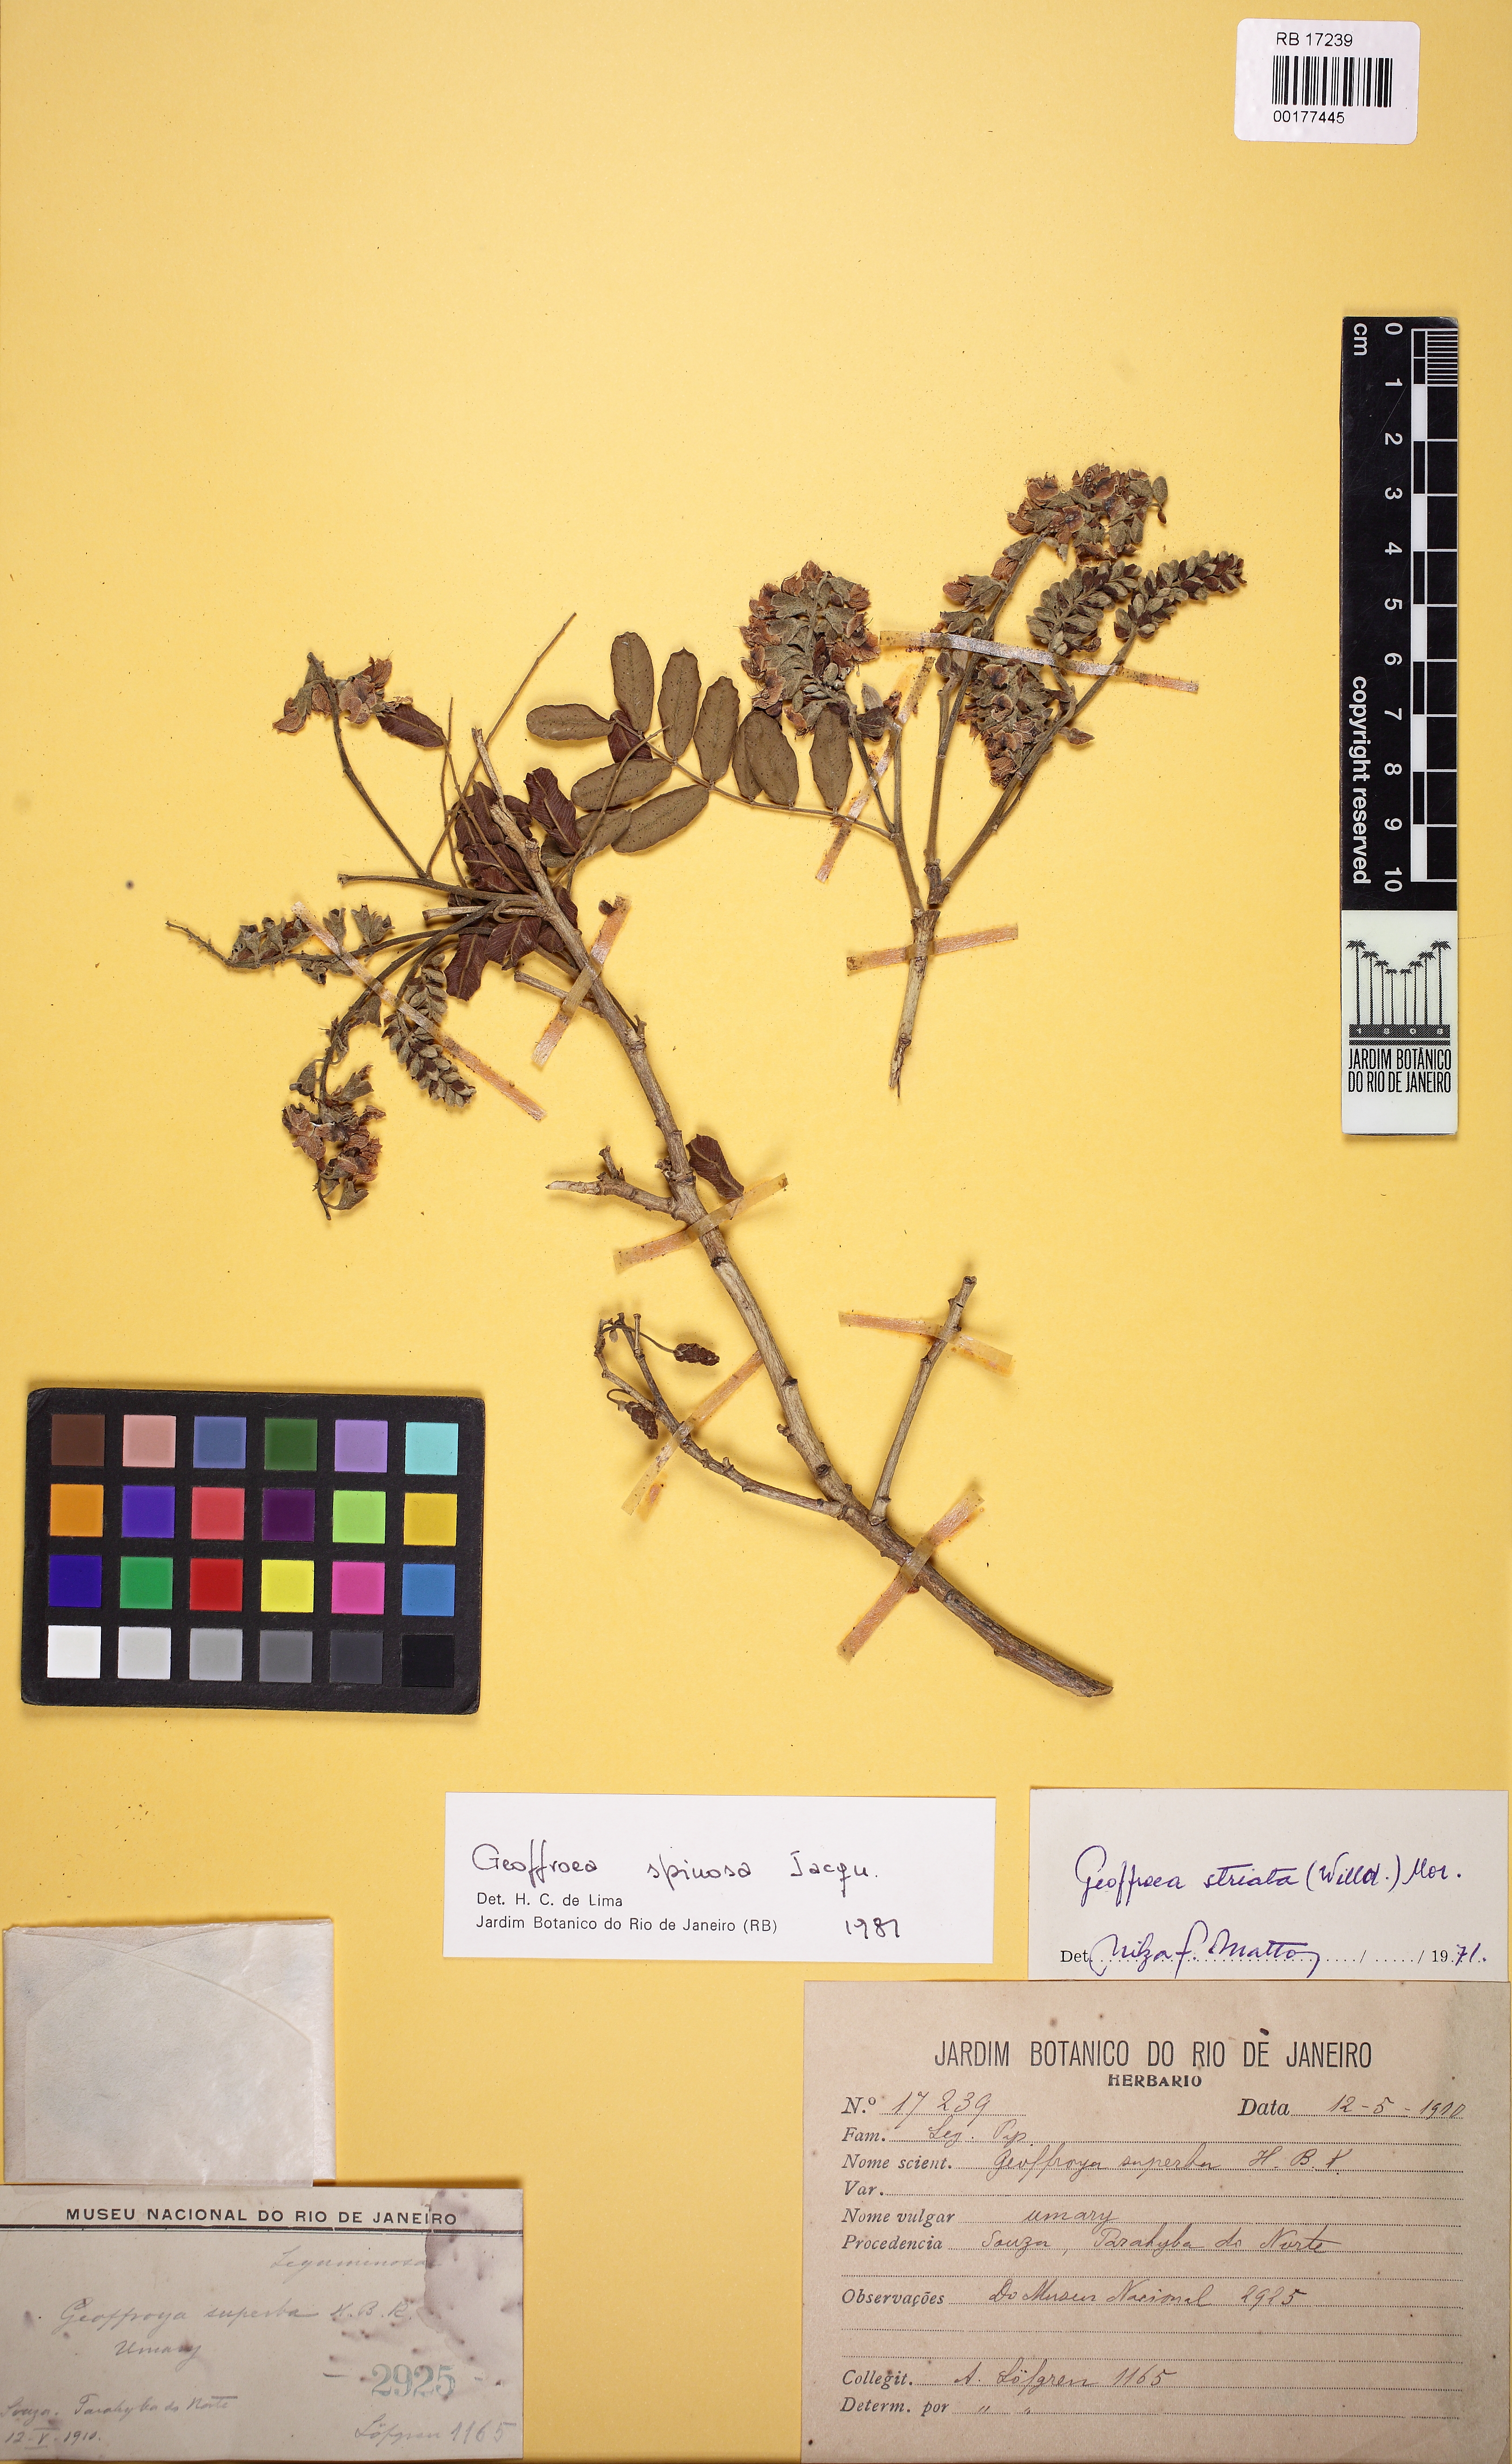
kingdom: Plantae
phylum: Tracheophyta
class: Magnoliopsida
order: Fabales
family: Fabaceae
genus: Geoffroea
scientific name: Geoffroea spinosa
